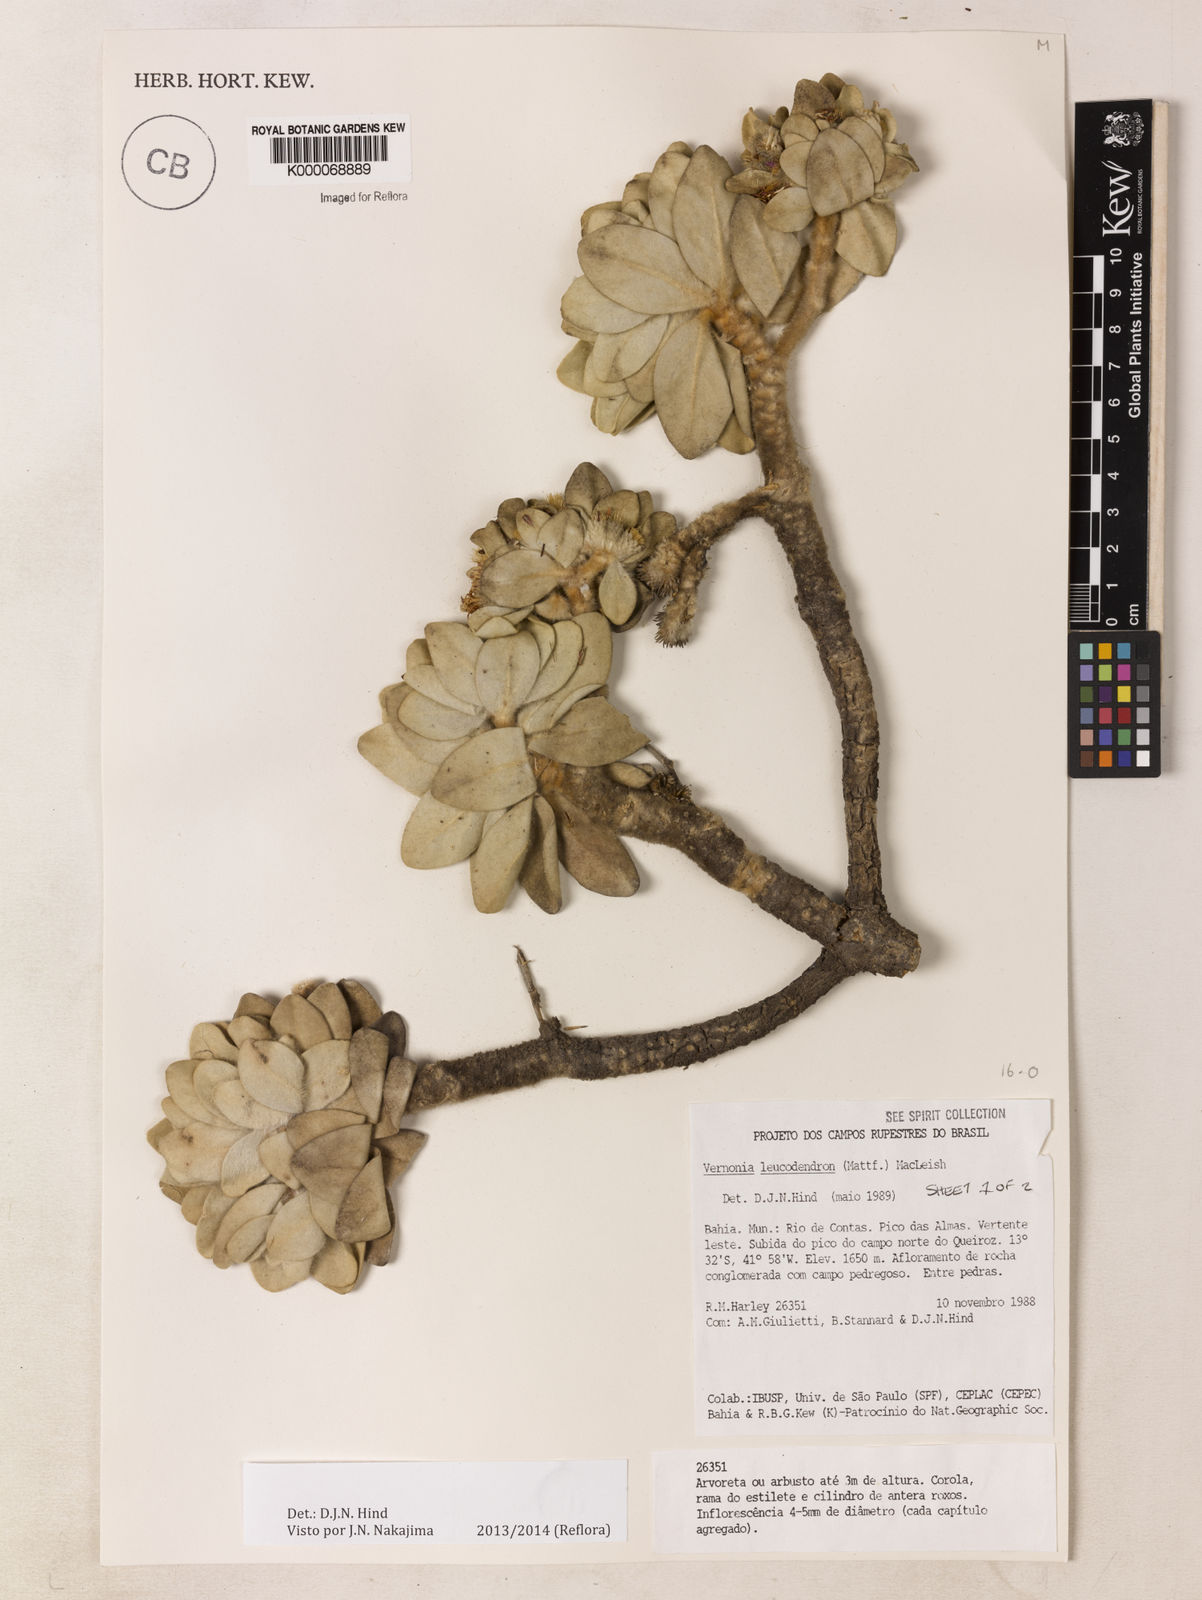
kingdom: Plantae
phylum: Tracheophyta
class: Magnoliopsida
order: Asterales
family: Asteraceae
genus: Lychnophorella
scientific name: Lychnophorella leucodendron
